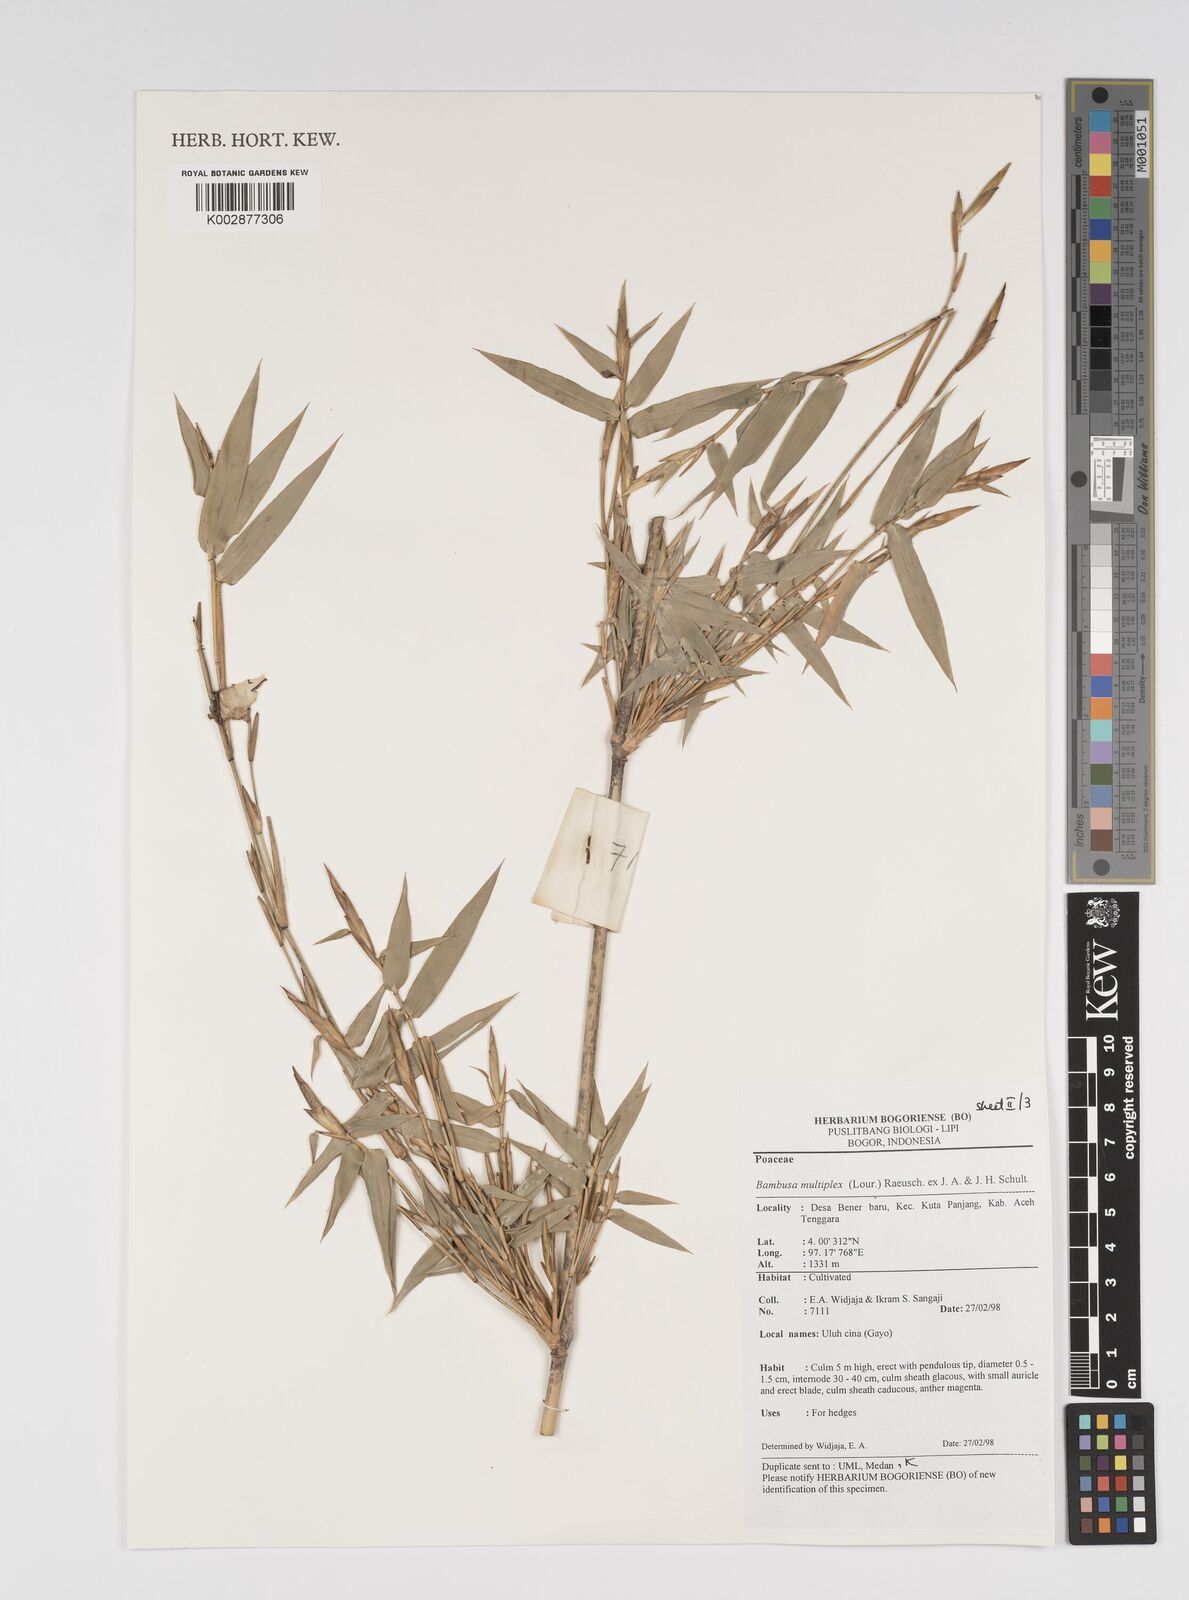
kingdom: Plantae
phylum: Tracheophyta
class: Liliopsida
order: Poales
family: Poaceae
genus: Bambusa
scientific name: Bambusa multiplex
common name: Hedge bamboo
